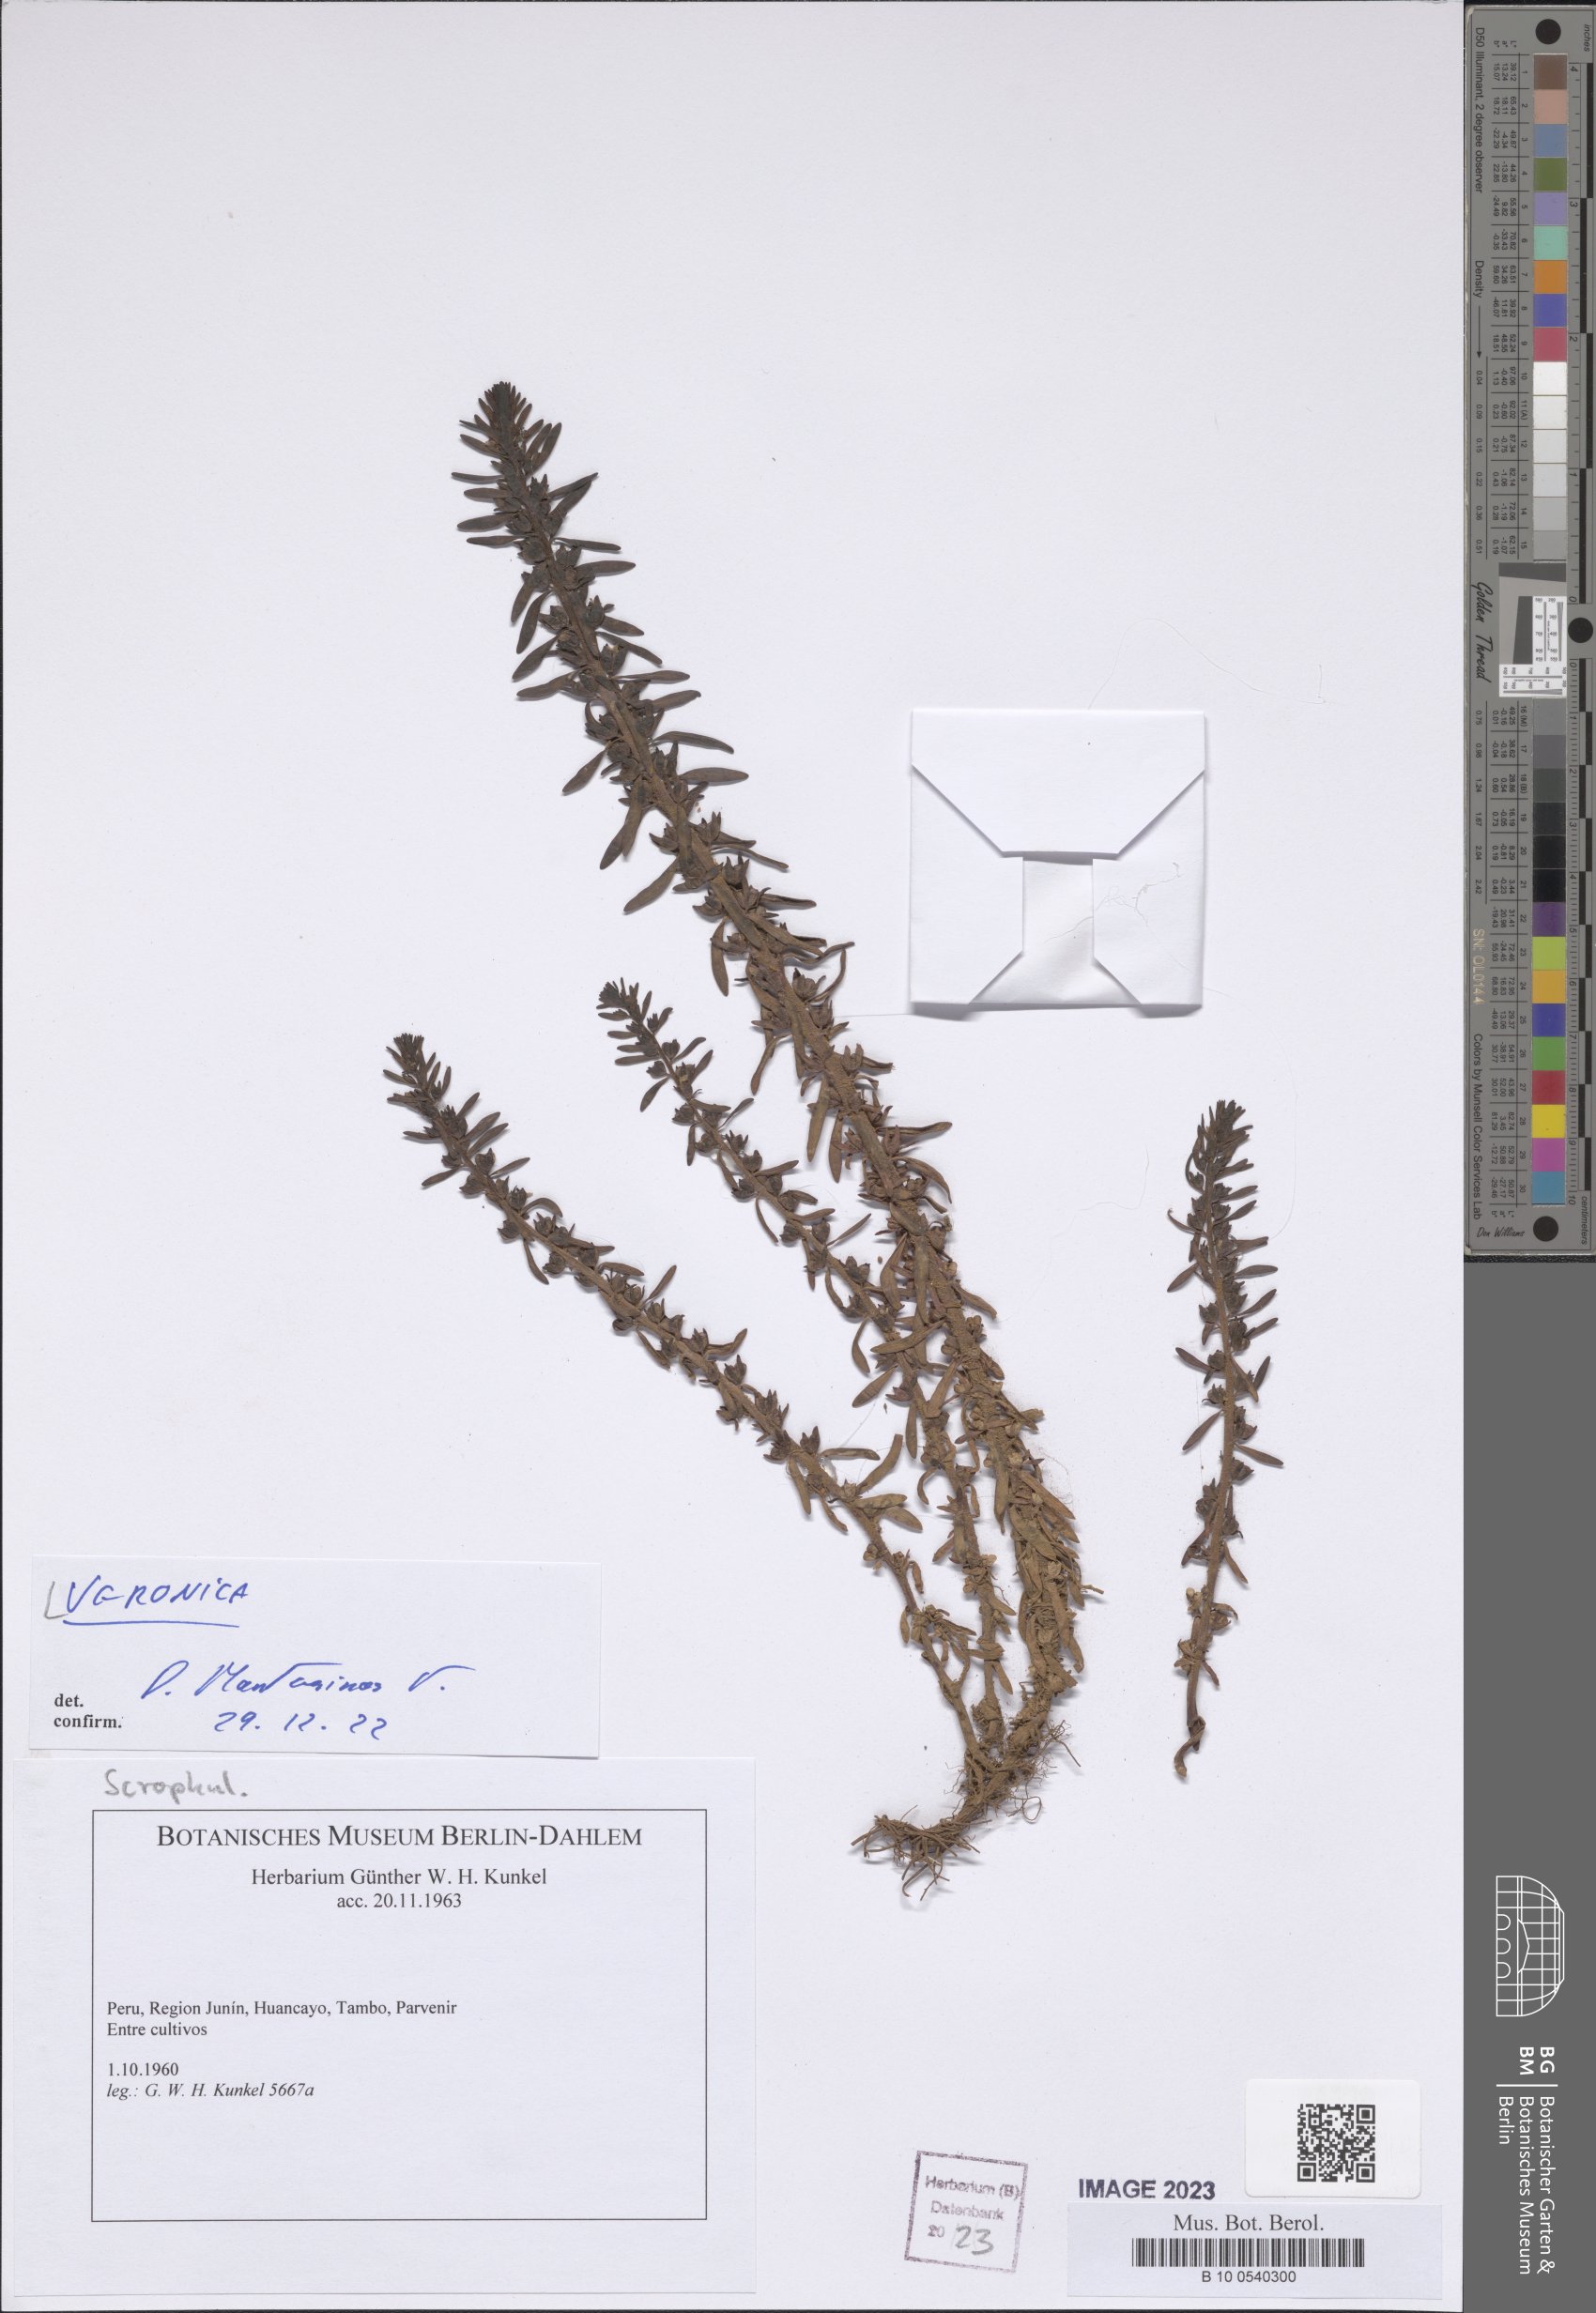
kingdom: Plantae
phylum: Tracheophyta
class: Magnoliopsida
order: Lamiales
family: Plantaginaceae
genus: Veronica
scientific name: Veronica
